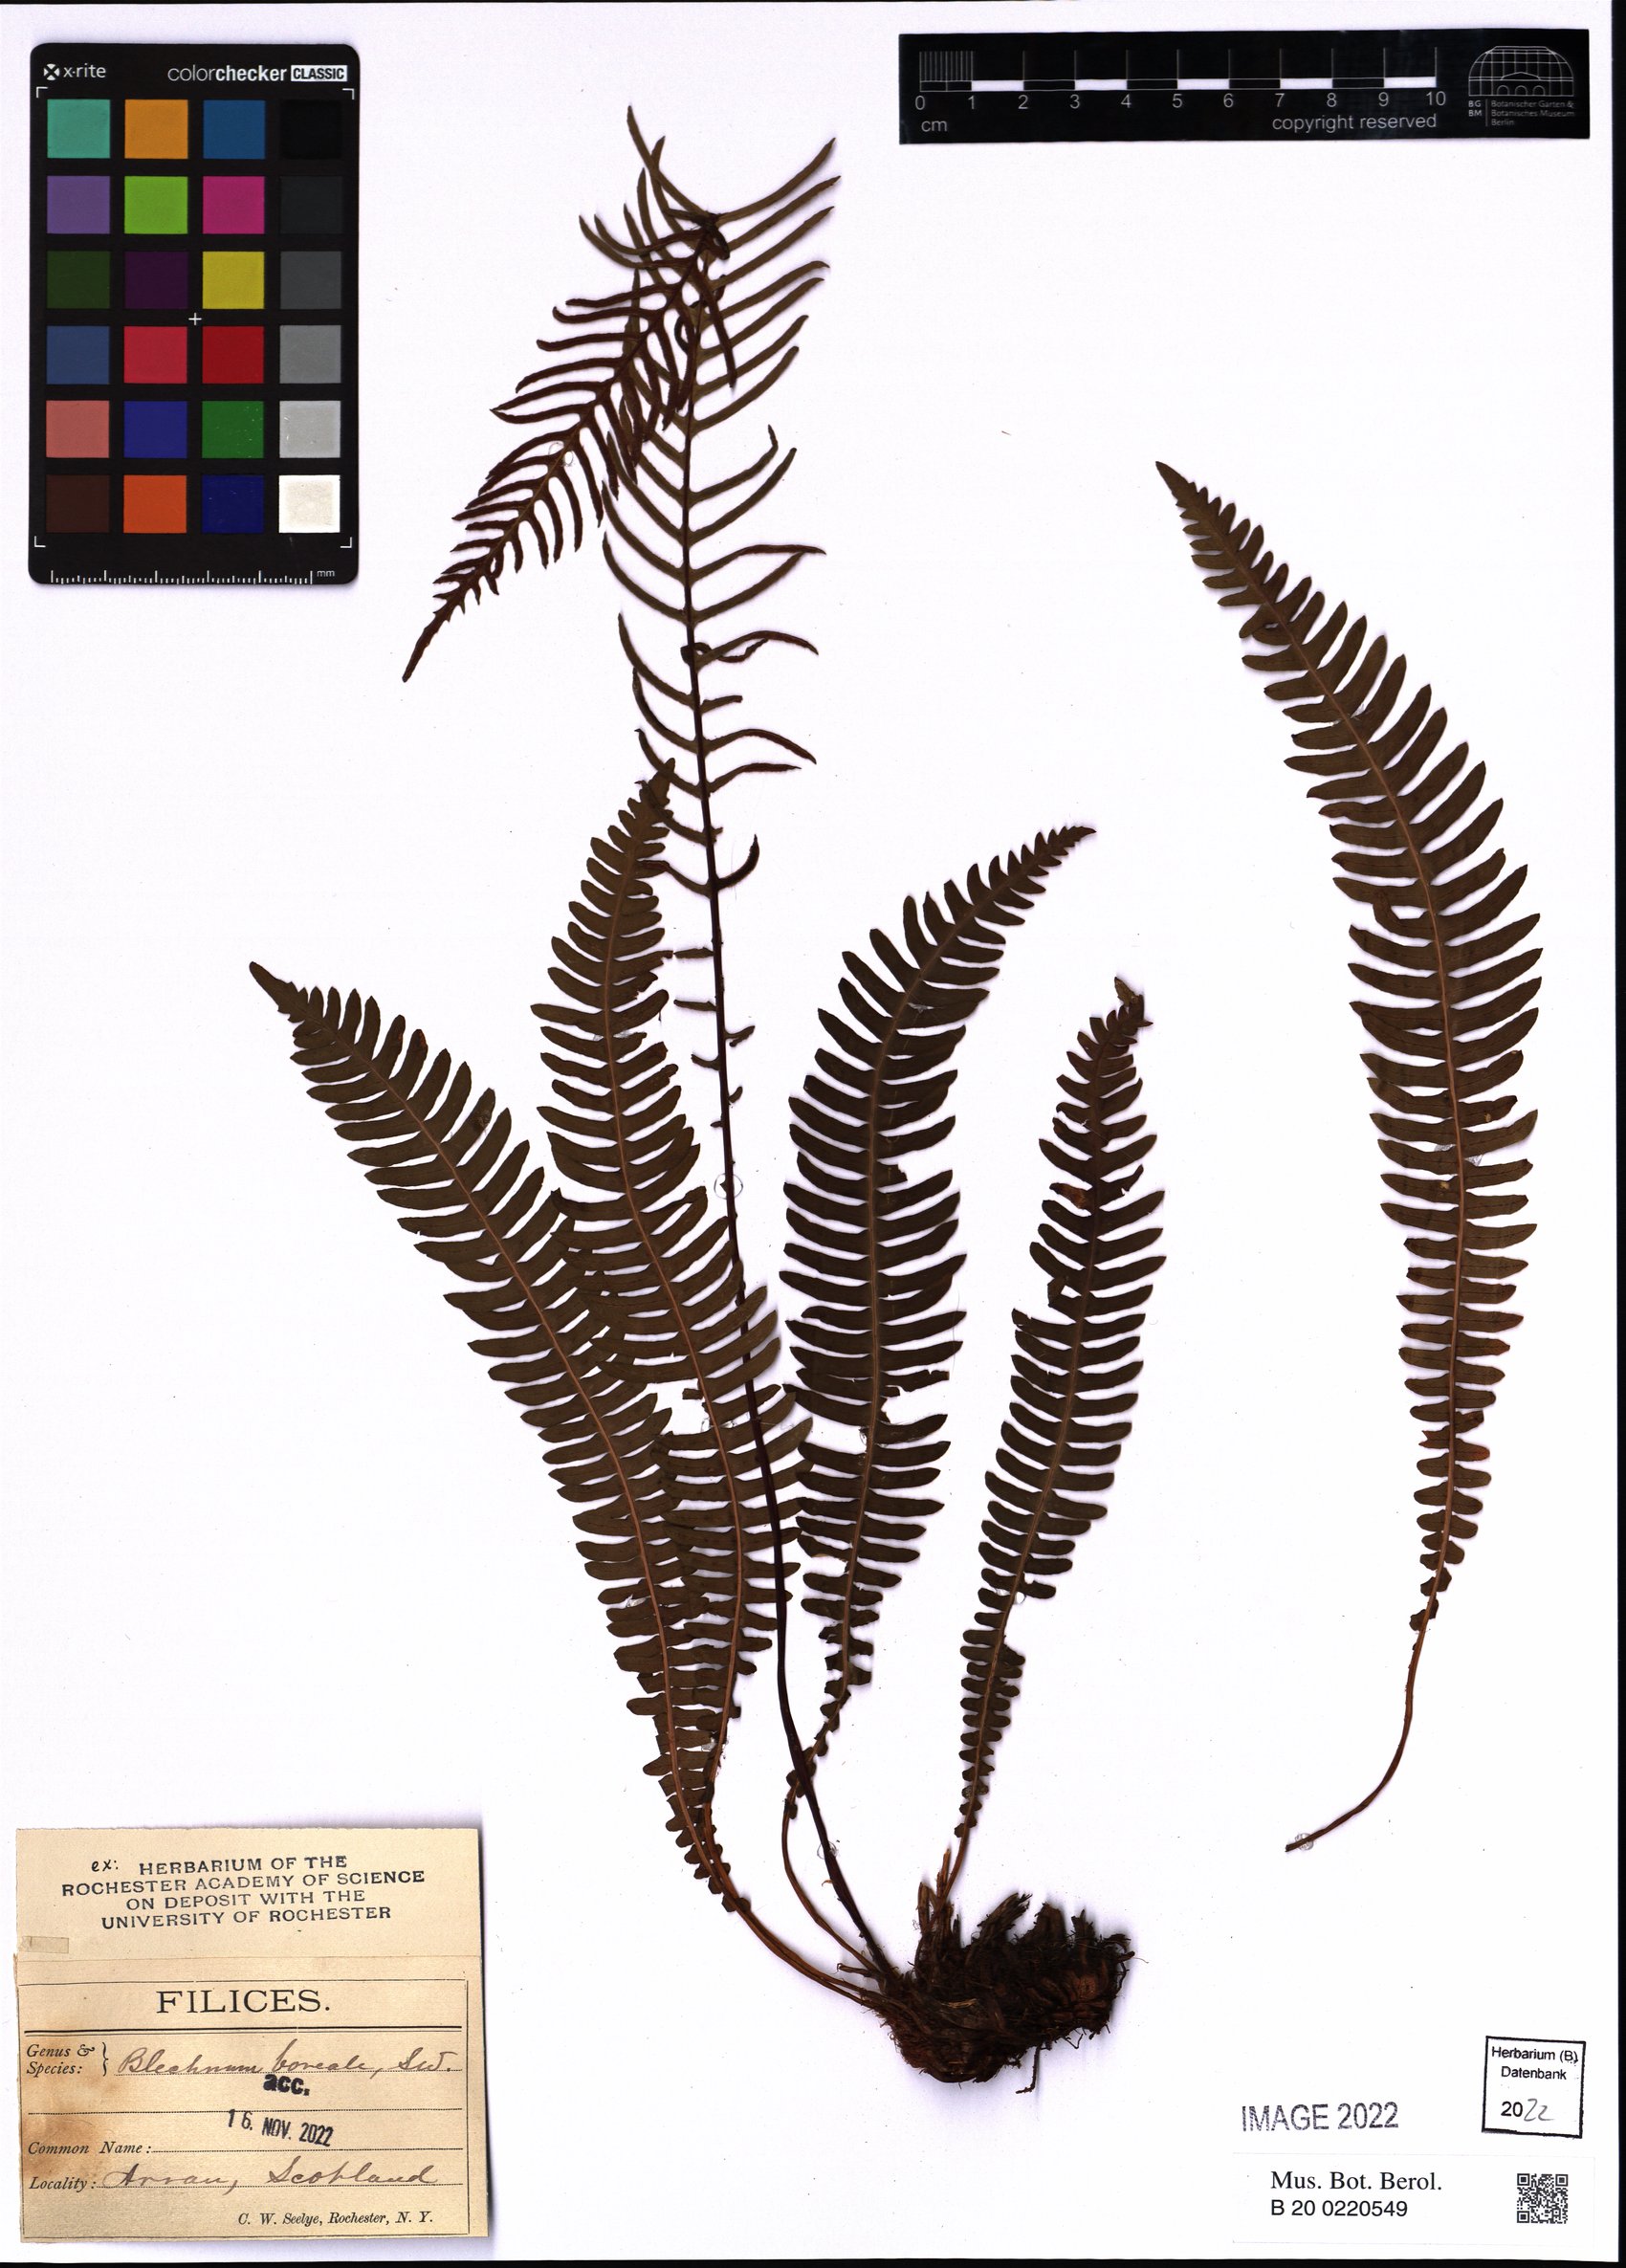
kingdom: Plantae
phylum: Tracheophyta
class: Polypodiopsida
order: Polypodiales
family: Blechnaceae
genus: Struthiopteris
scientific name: Struthiopteris spicant
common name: Deer fern
